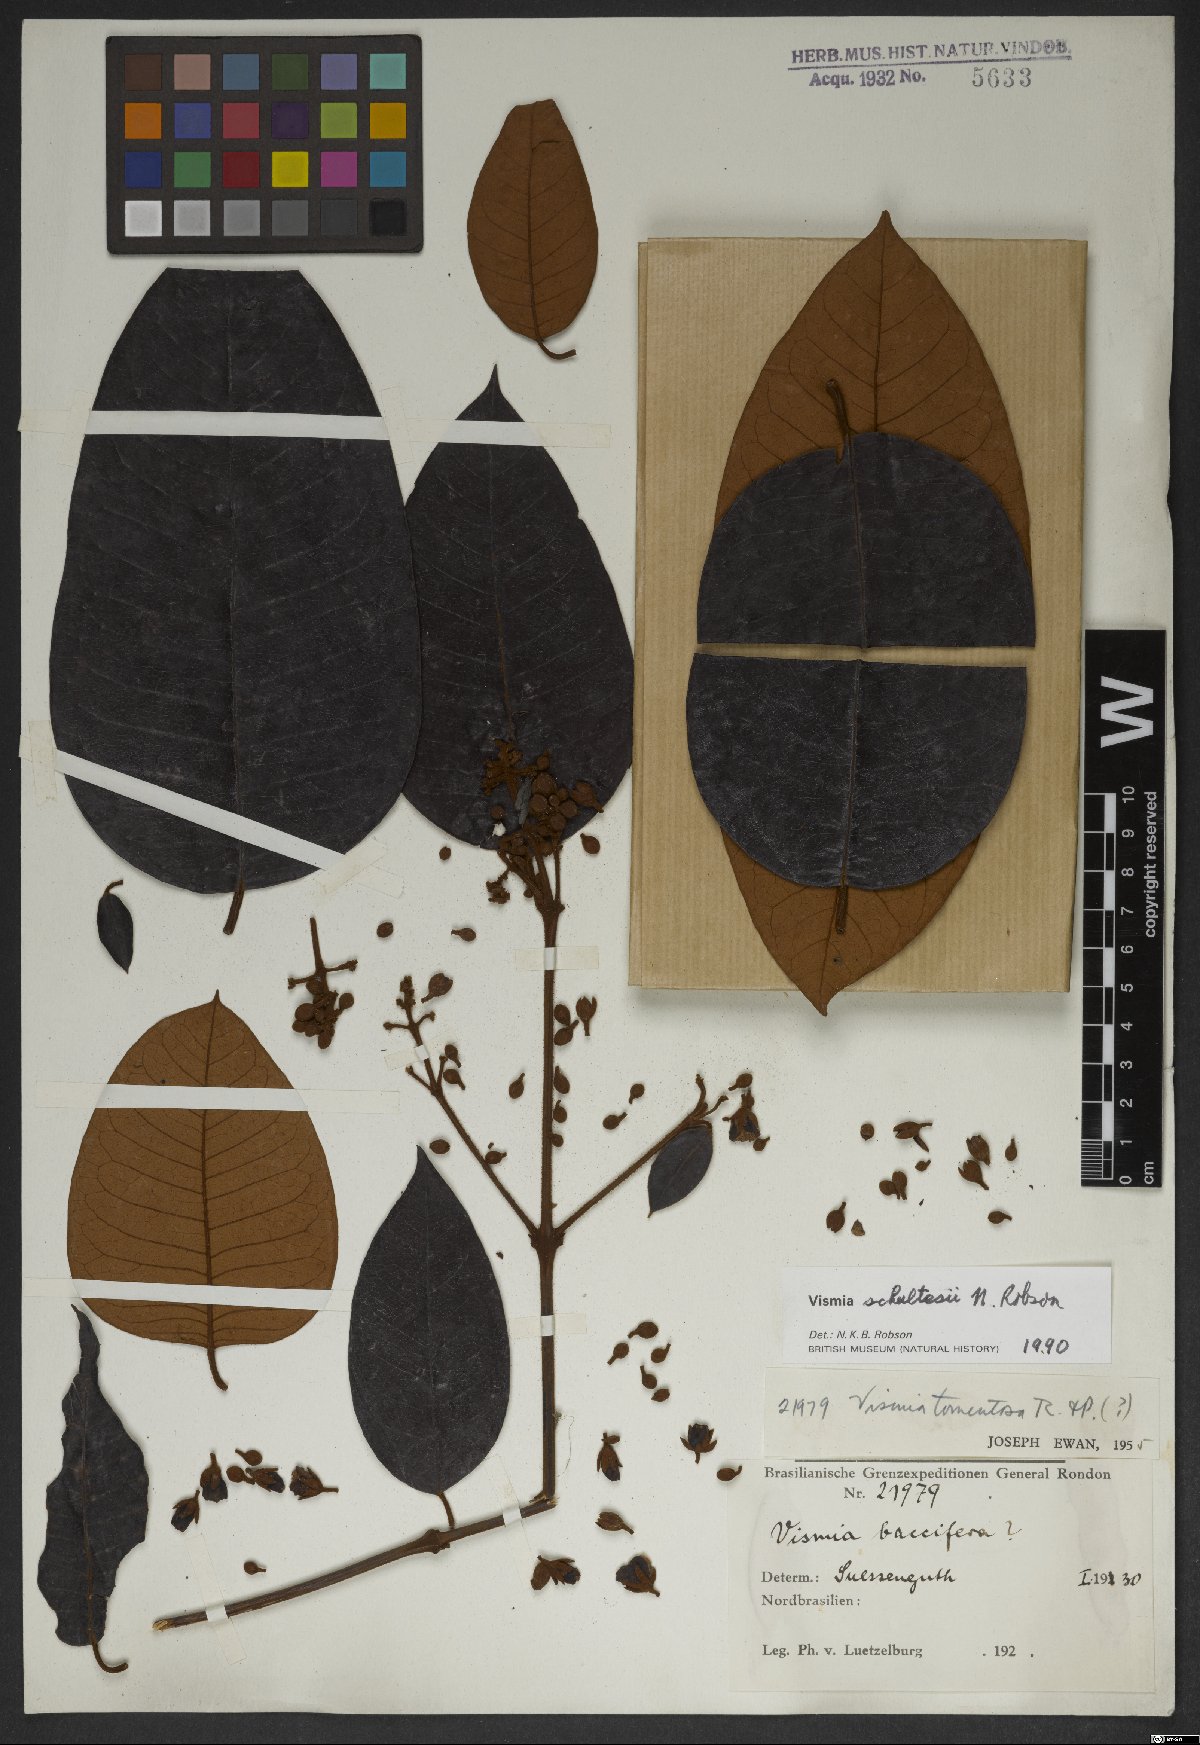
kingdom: Plantae
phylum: Tracheophyta
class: Magnoliopsida
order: Malpighiales
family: Hypericaceae
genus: Vismia
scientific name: Vismia ferruginea
